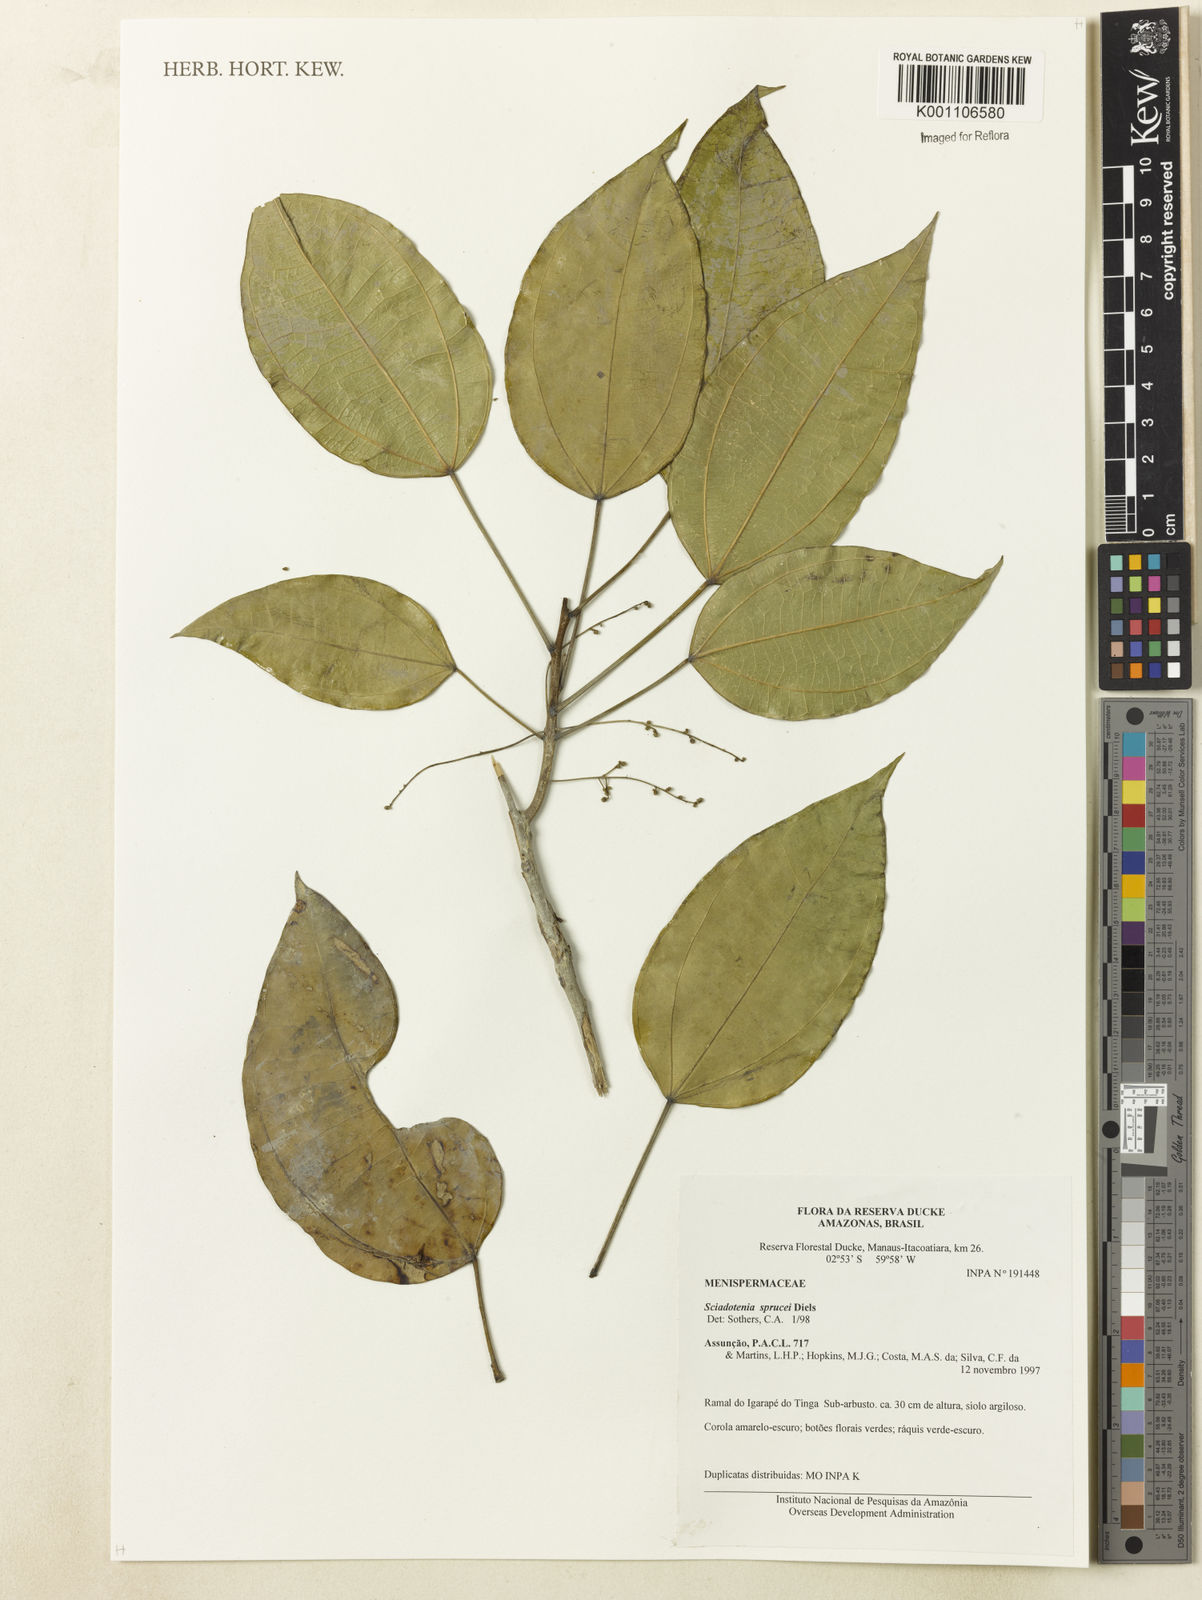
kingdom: Plantae
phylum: Tracheophyta
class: Magnoliopsida
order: Ranunculales
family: Menispermaceae
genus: Sciadotenia
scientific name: Sciadotenia
